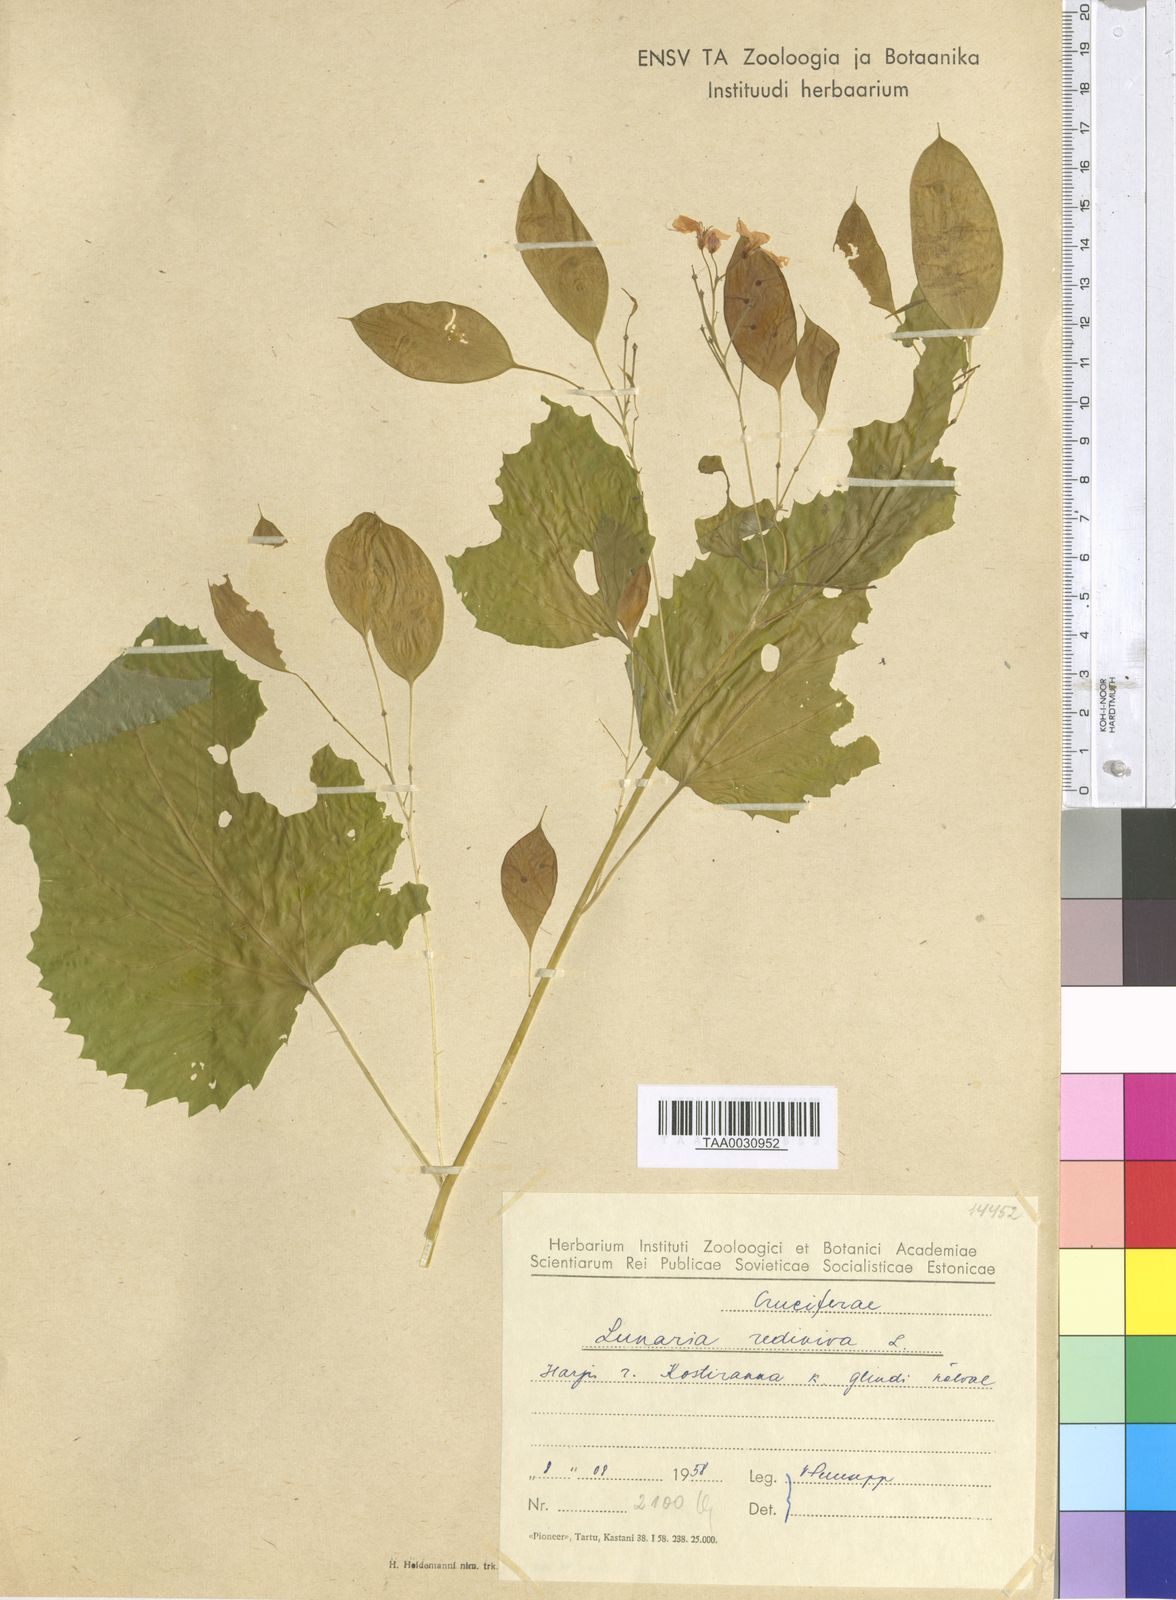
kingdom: Plantae
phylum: Tracheophyta
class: Magnoliopsida
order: Brassicales
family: Brassicaceae
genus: Lunaria
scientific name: Lunaria rediviva
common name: Perennial honesty
